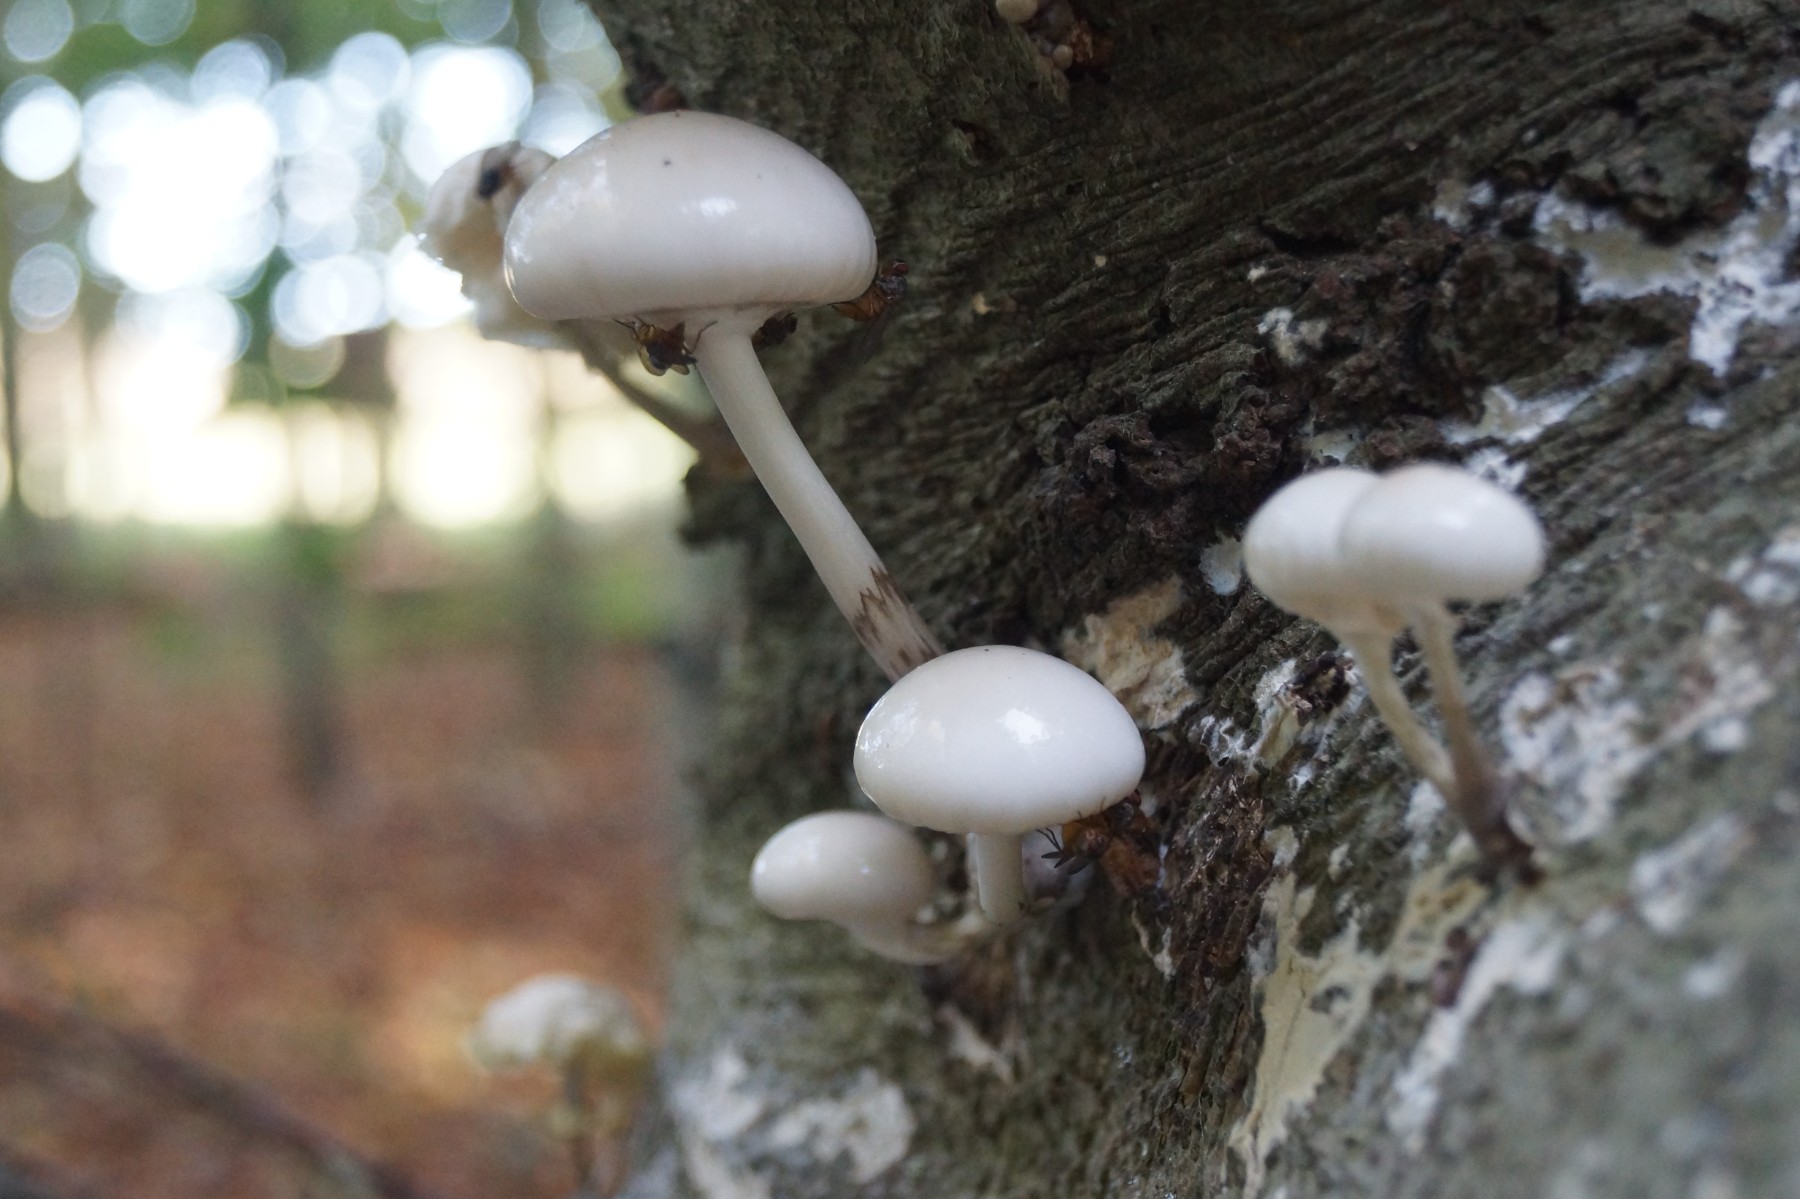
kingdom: Fungi
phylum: Basidiomycota
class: Agaricomycetes
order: Agaricales
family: Physalacriaceae
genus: Mucidula
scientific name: Mucidula mucida
